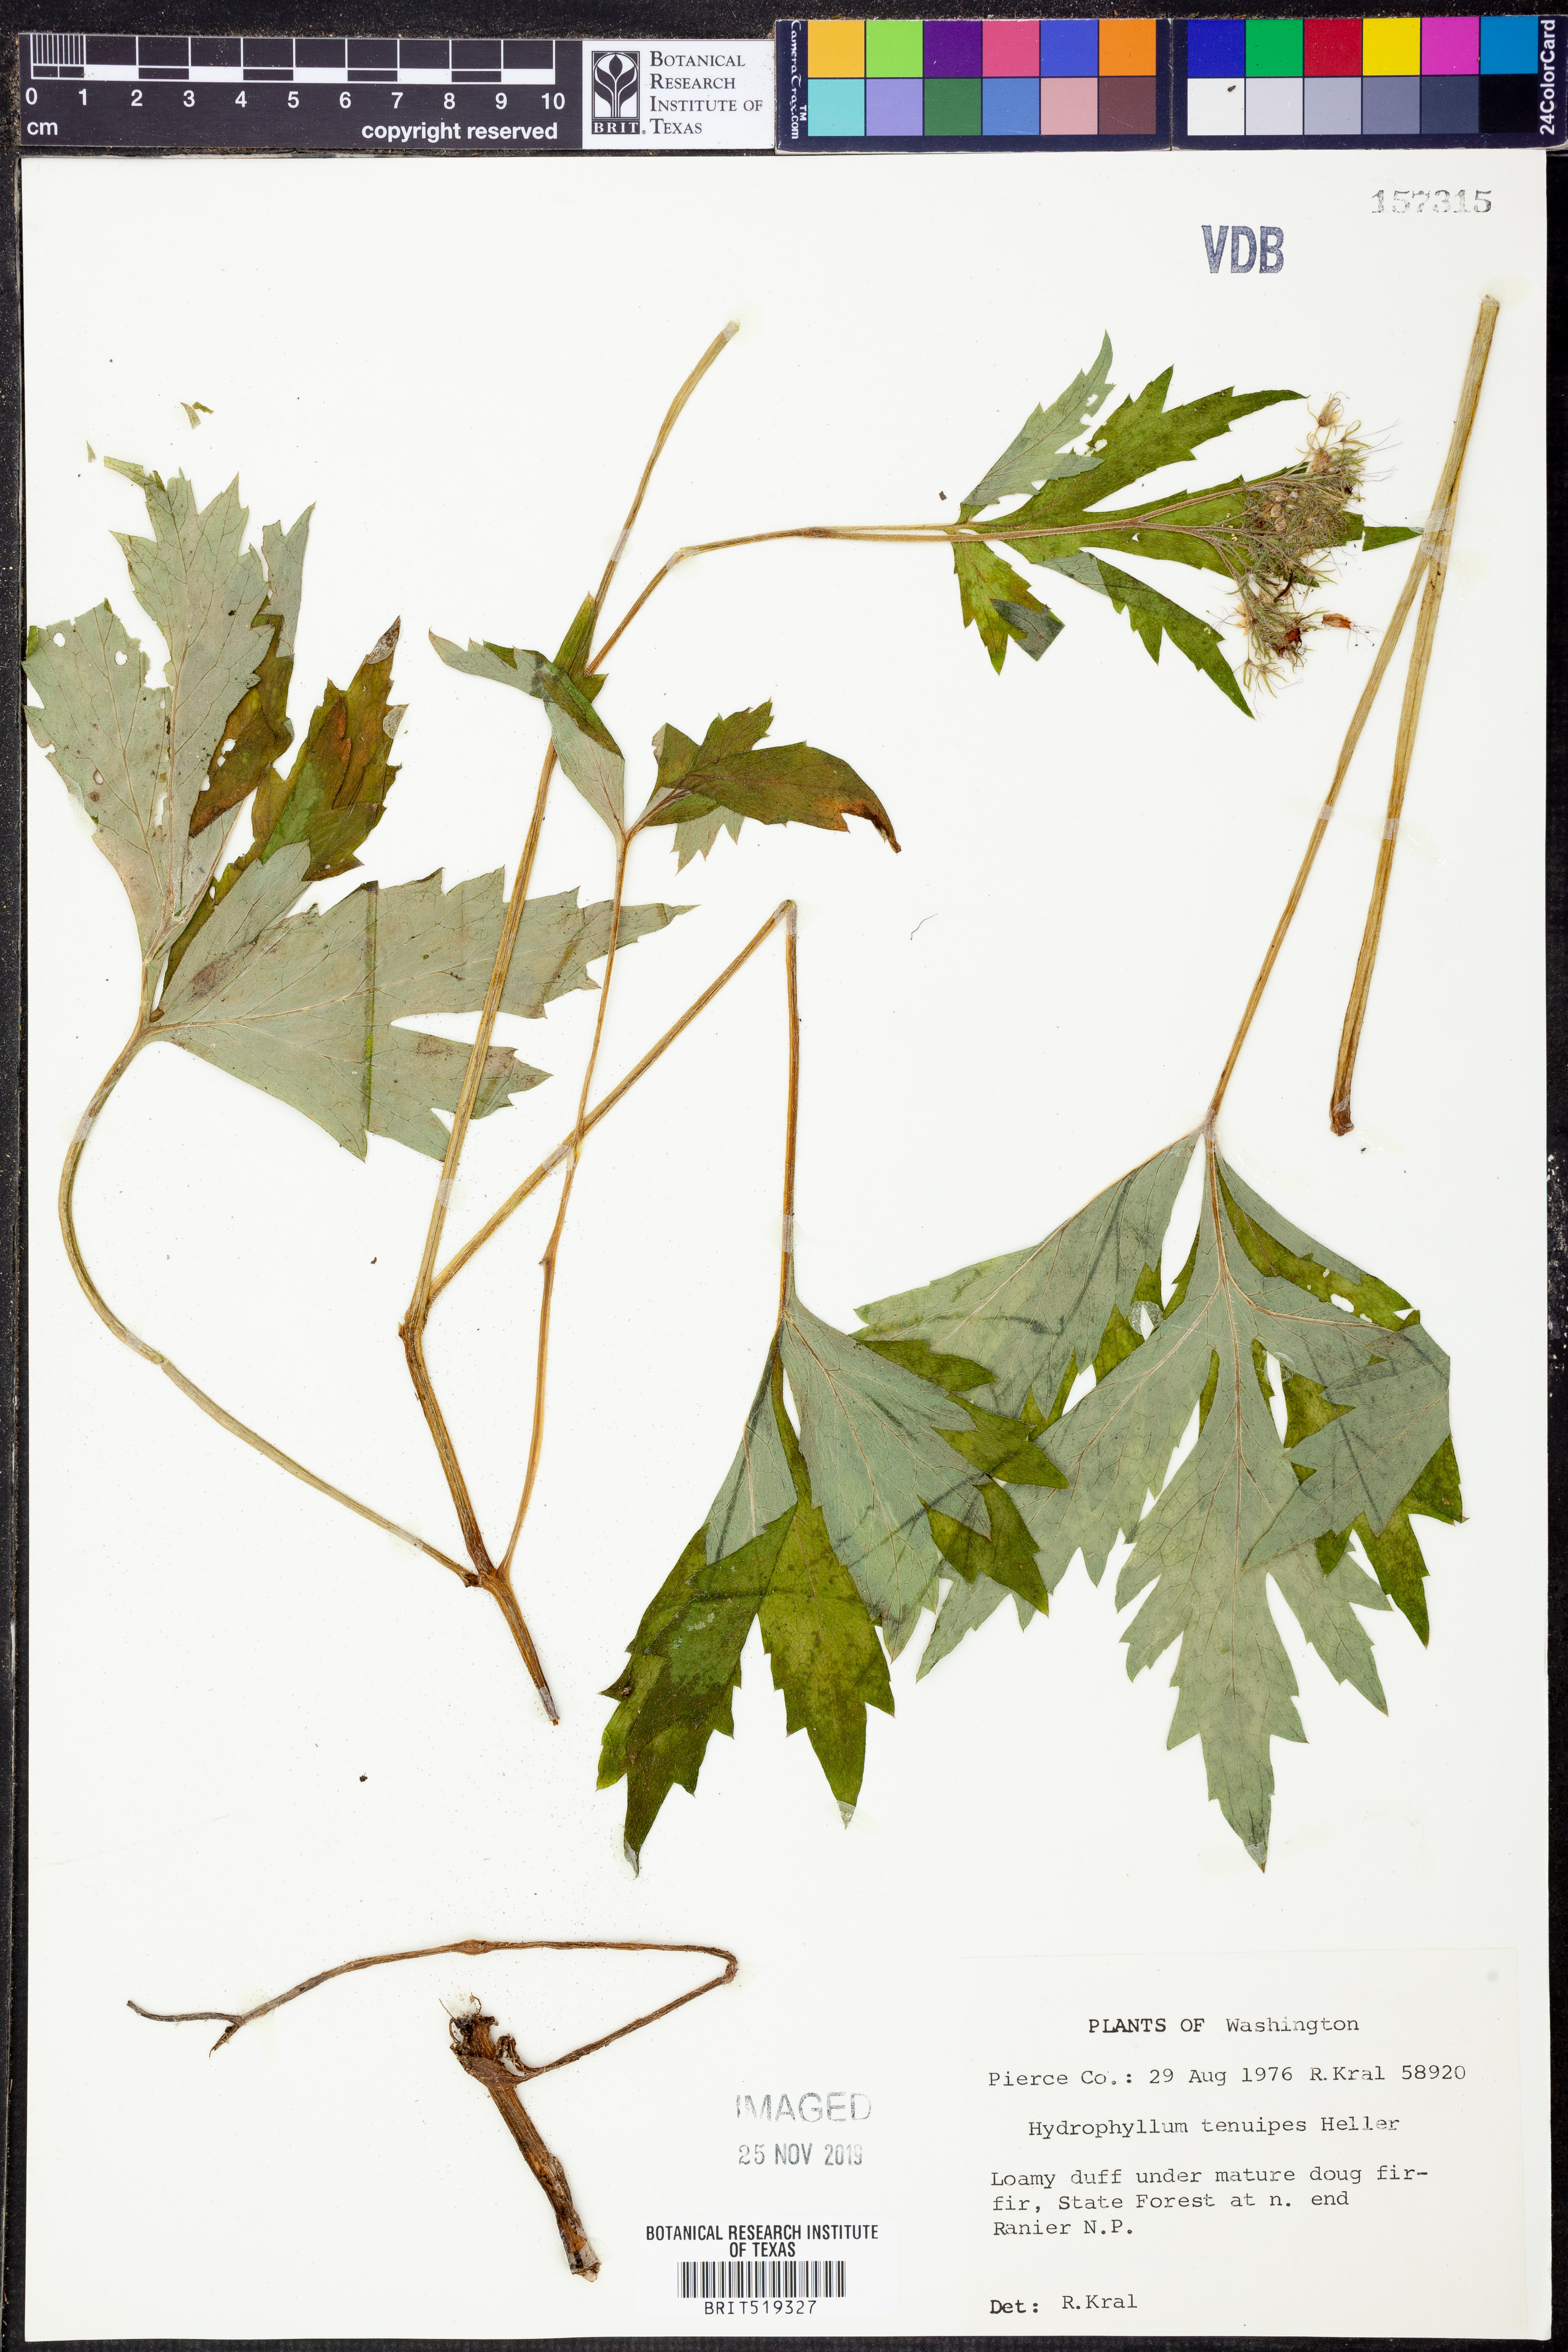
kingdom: Plantae
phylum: Tracheophyta
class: Magnoliopsida
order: Boraginales
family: Hydrophyllaceae
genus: Hydrophyllum
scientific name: Hydrophyllum tenuipes
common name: Pacific waterleaf
